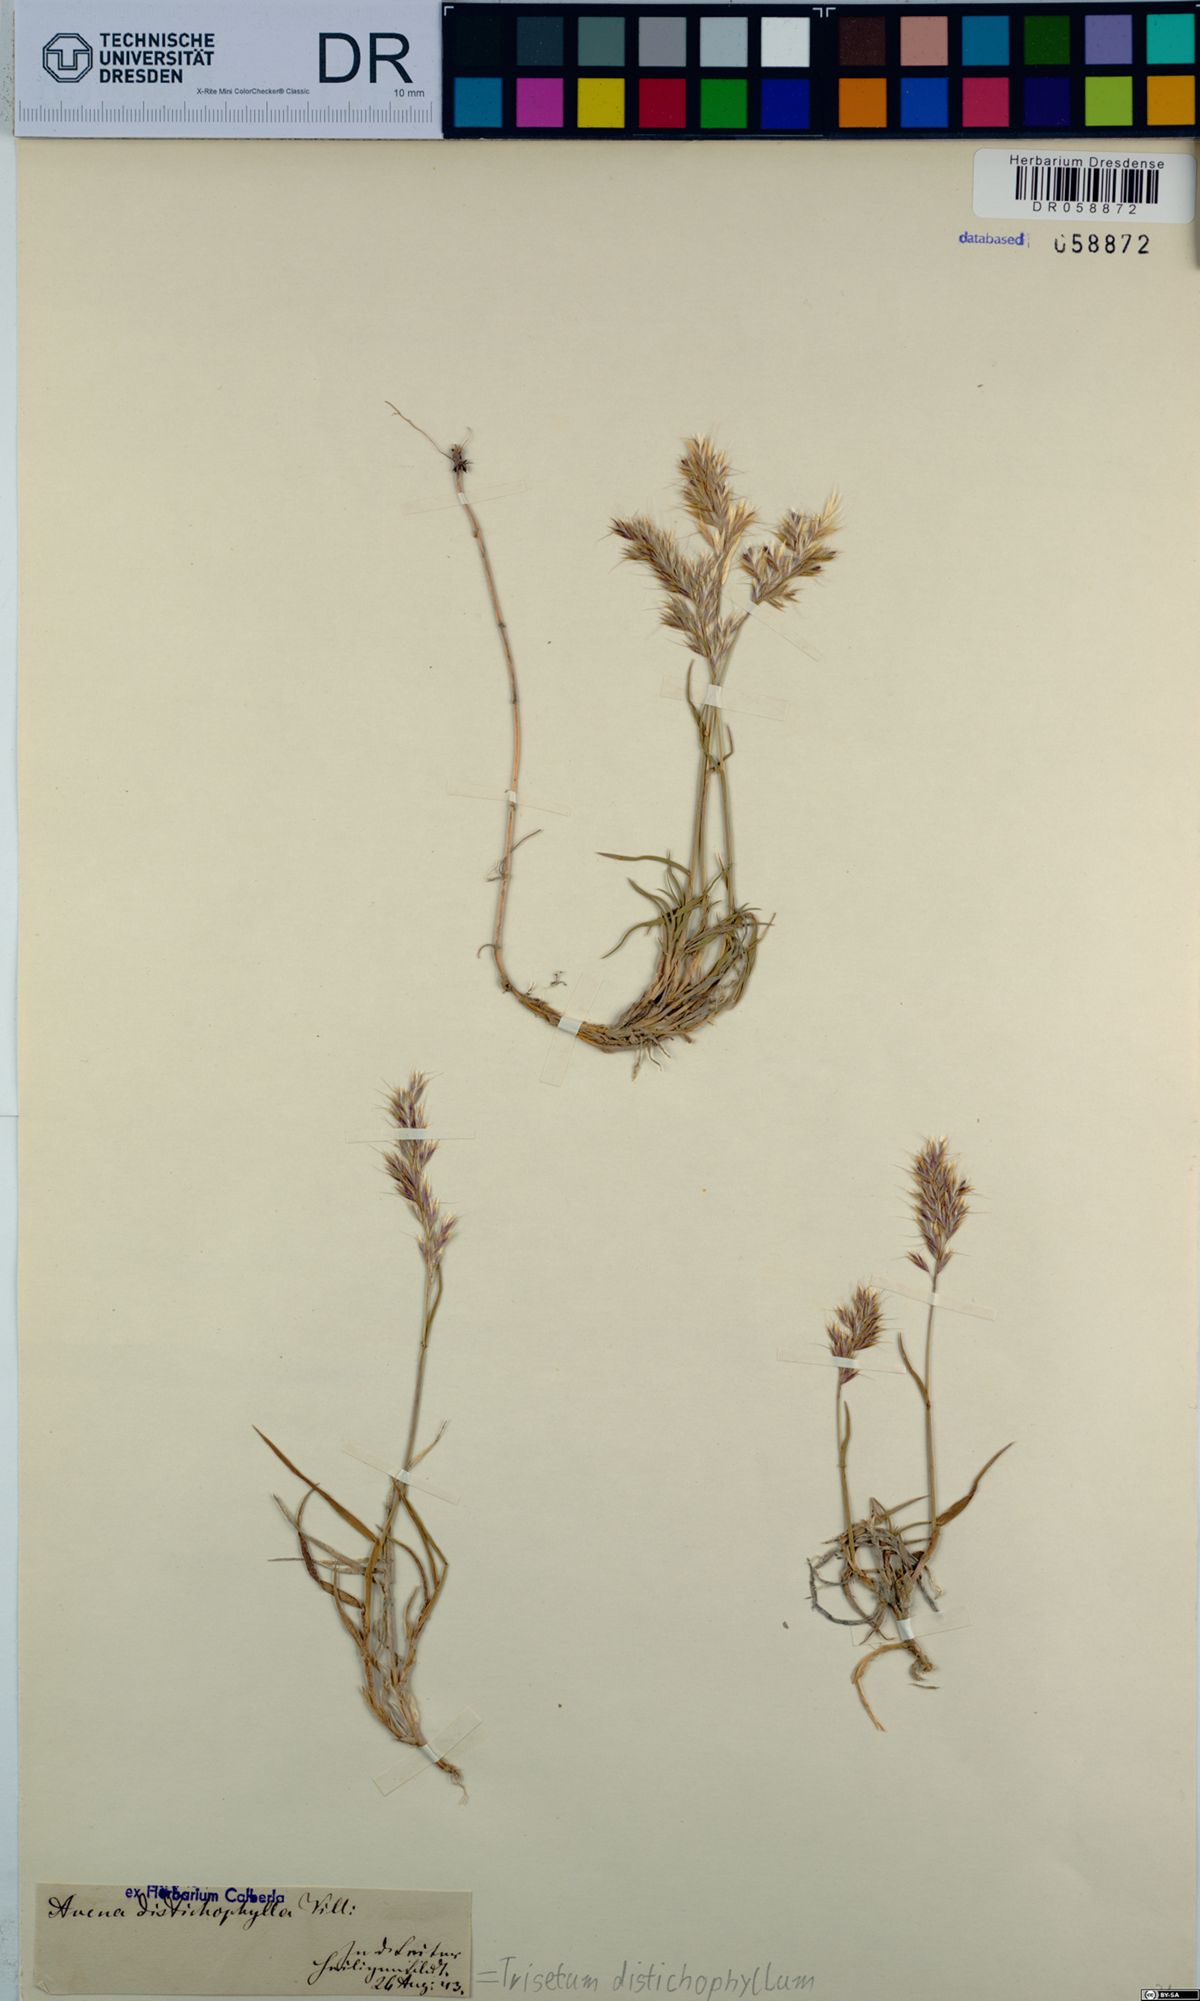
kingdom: Plantae
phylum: Tracheophyta
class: Liliopsida
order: Poales
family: Poaceae
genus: Acrospelion
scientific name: Acrospelion distichophyllum
